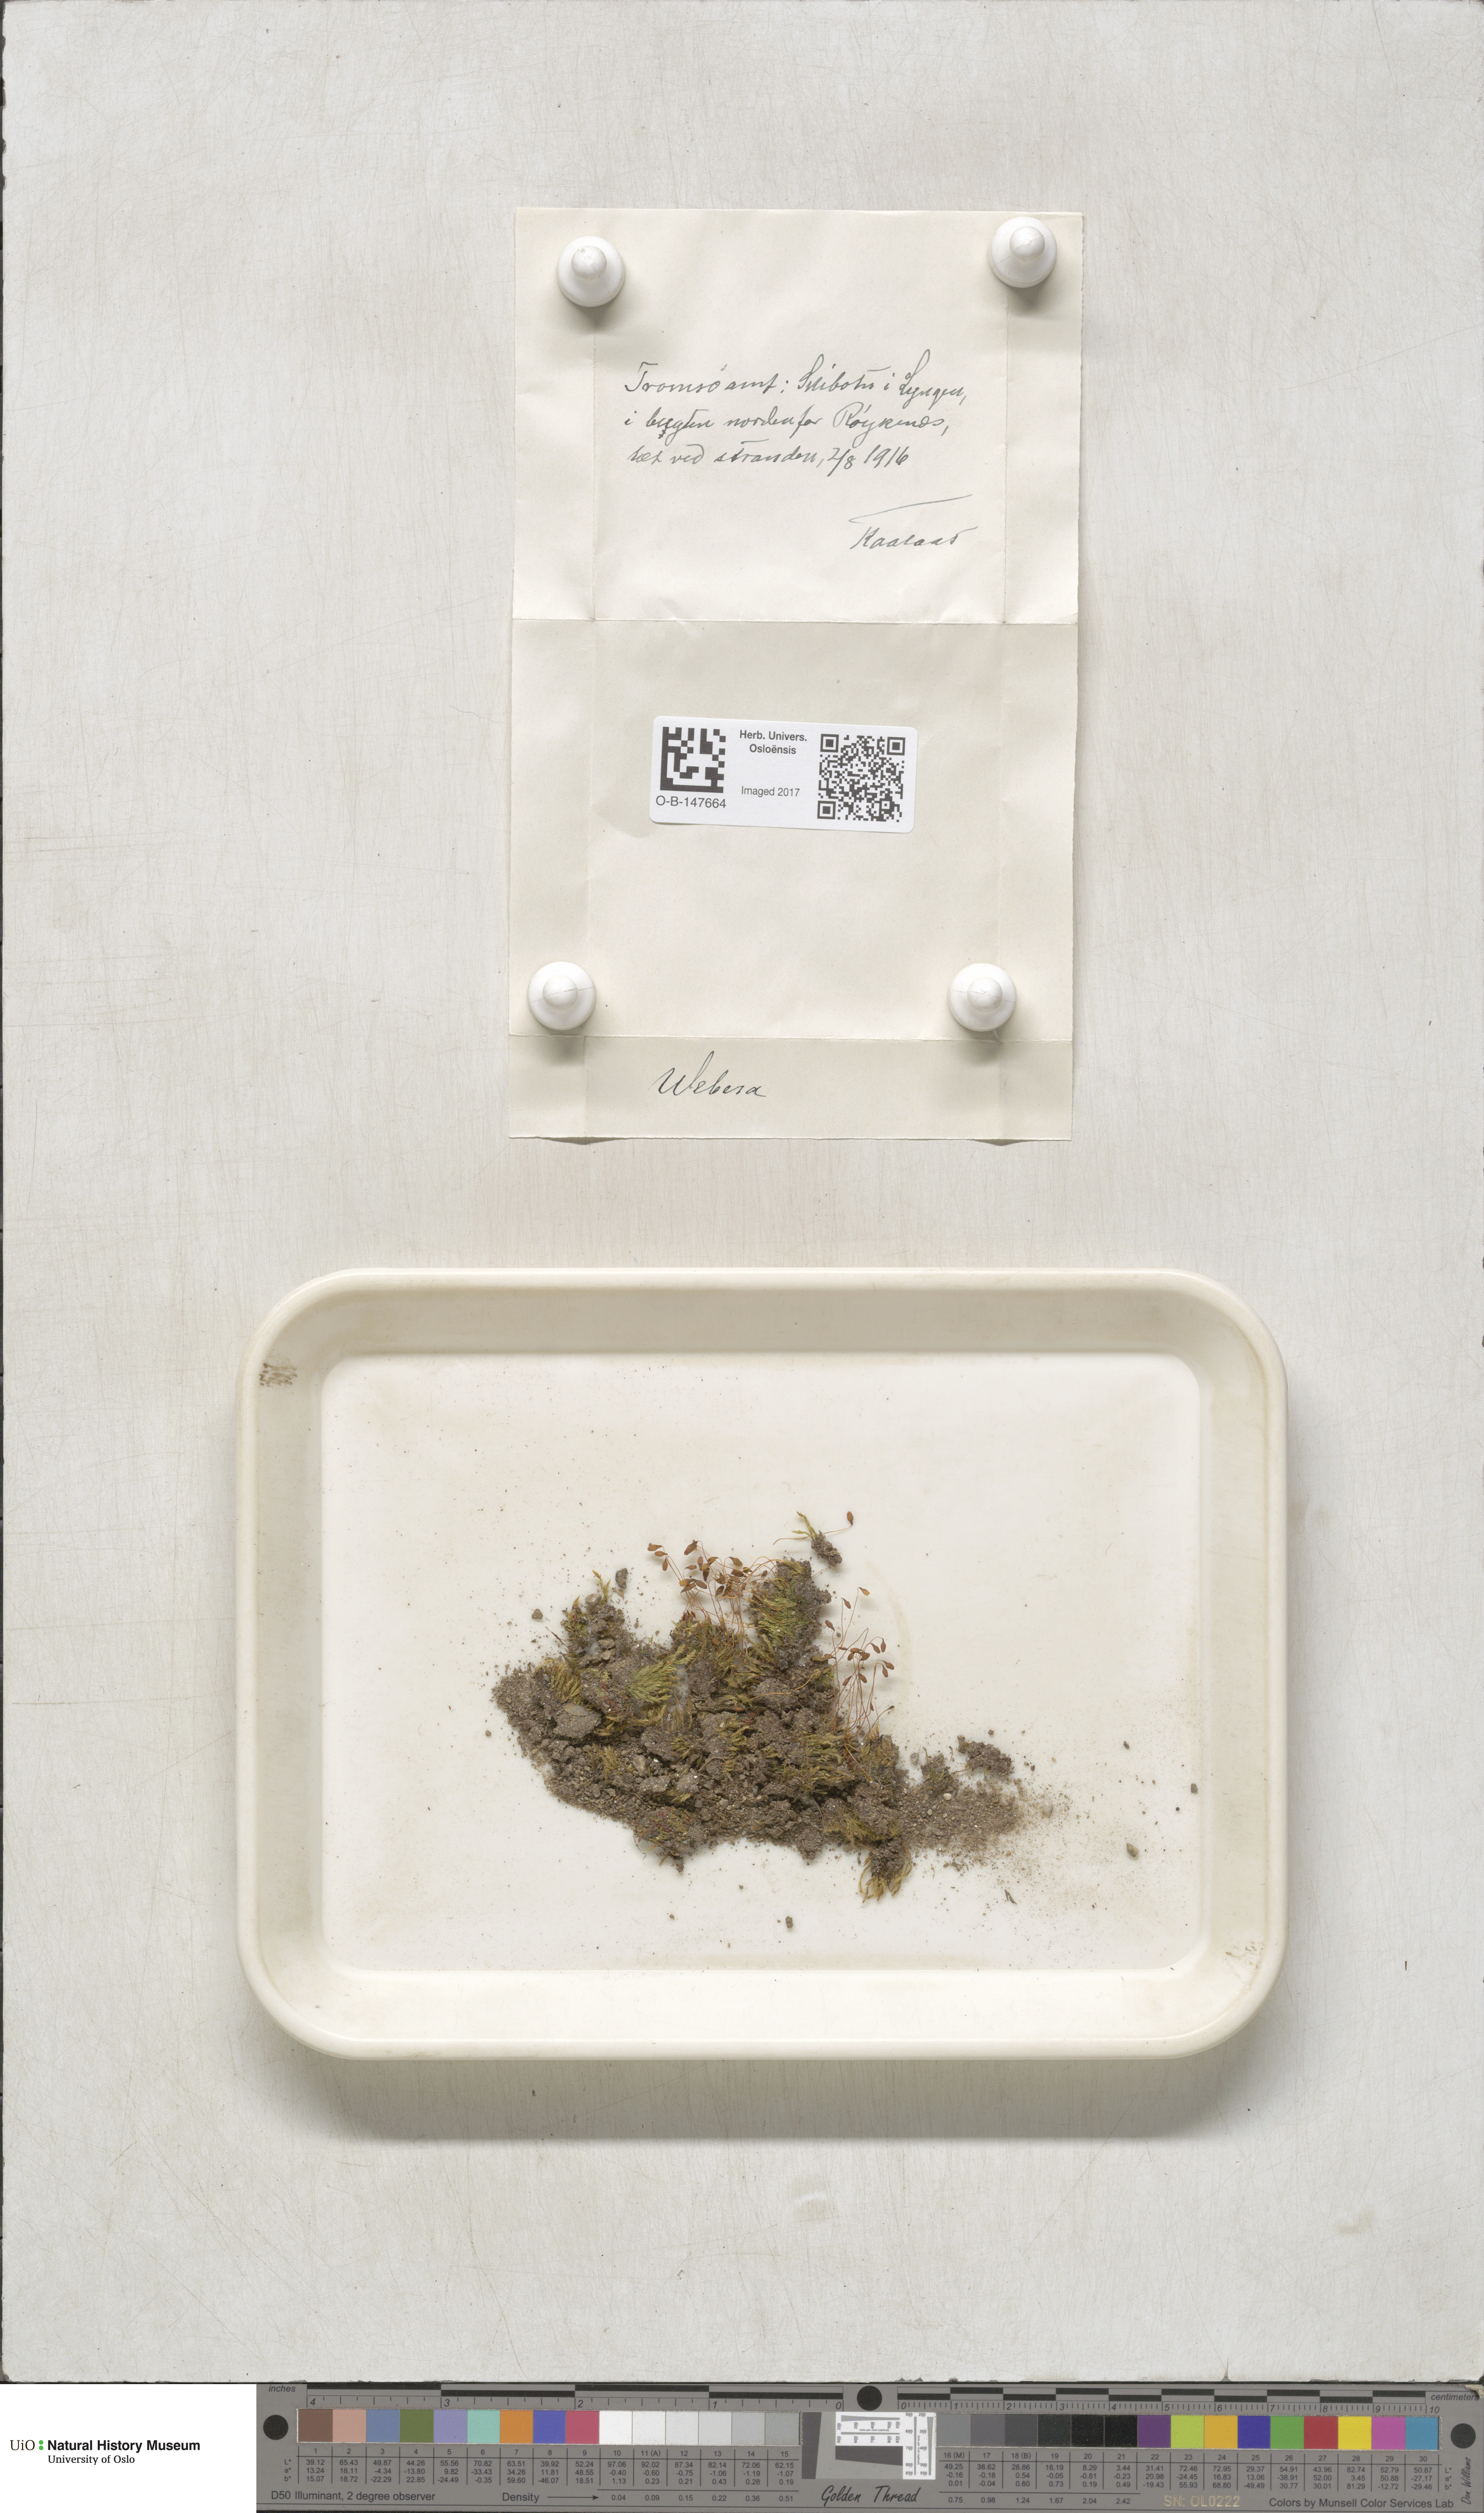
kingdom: Plantae
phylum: Bryophyta
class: Bryopsida
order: Bryales
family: Mniaceae
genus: Pohlia
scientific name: Pohlia
